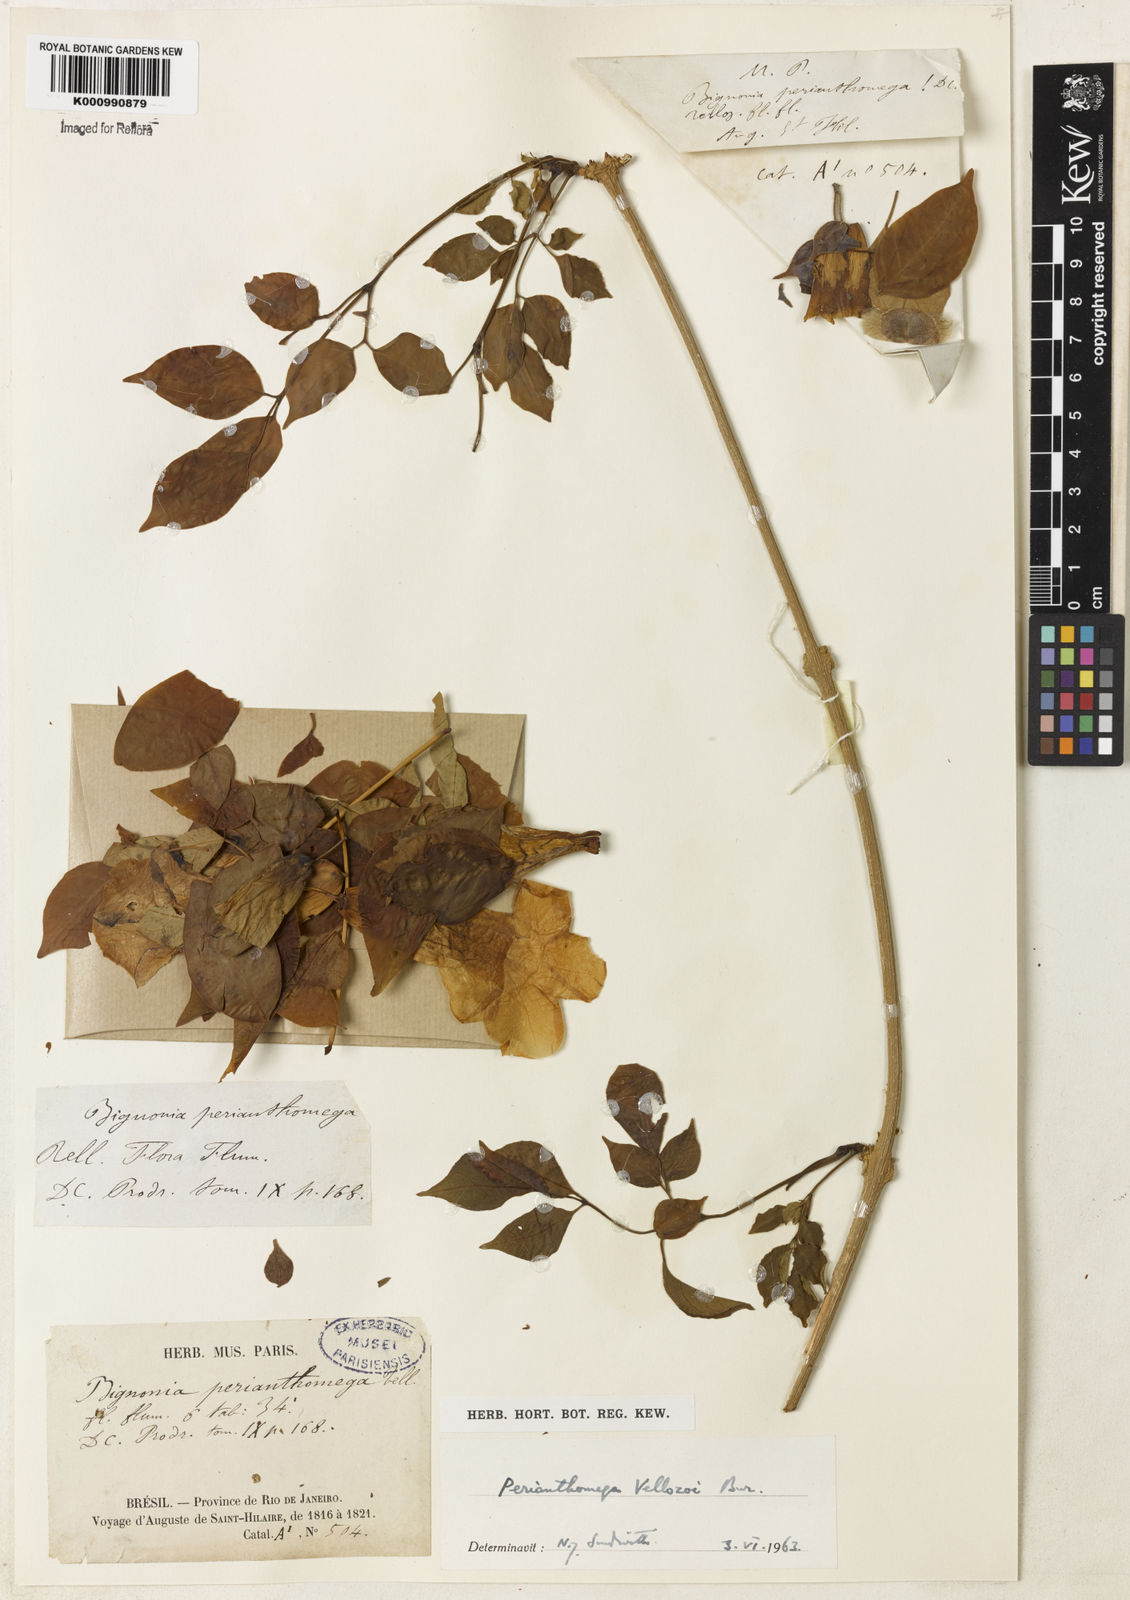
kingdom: Plantae
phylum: Tracheophyta
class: Magnoliopsida
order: Lamiales
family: Bignoniaceae
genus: Perianthomega
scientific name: Perianthomega vellozoi
